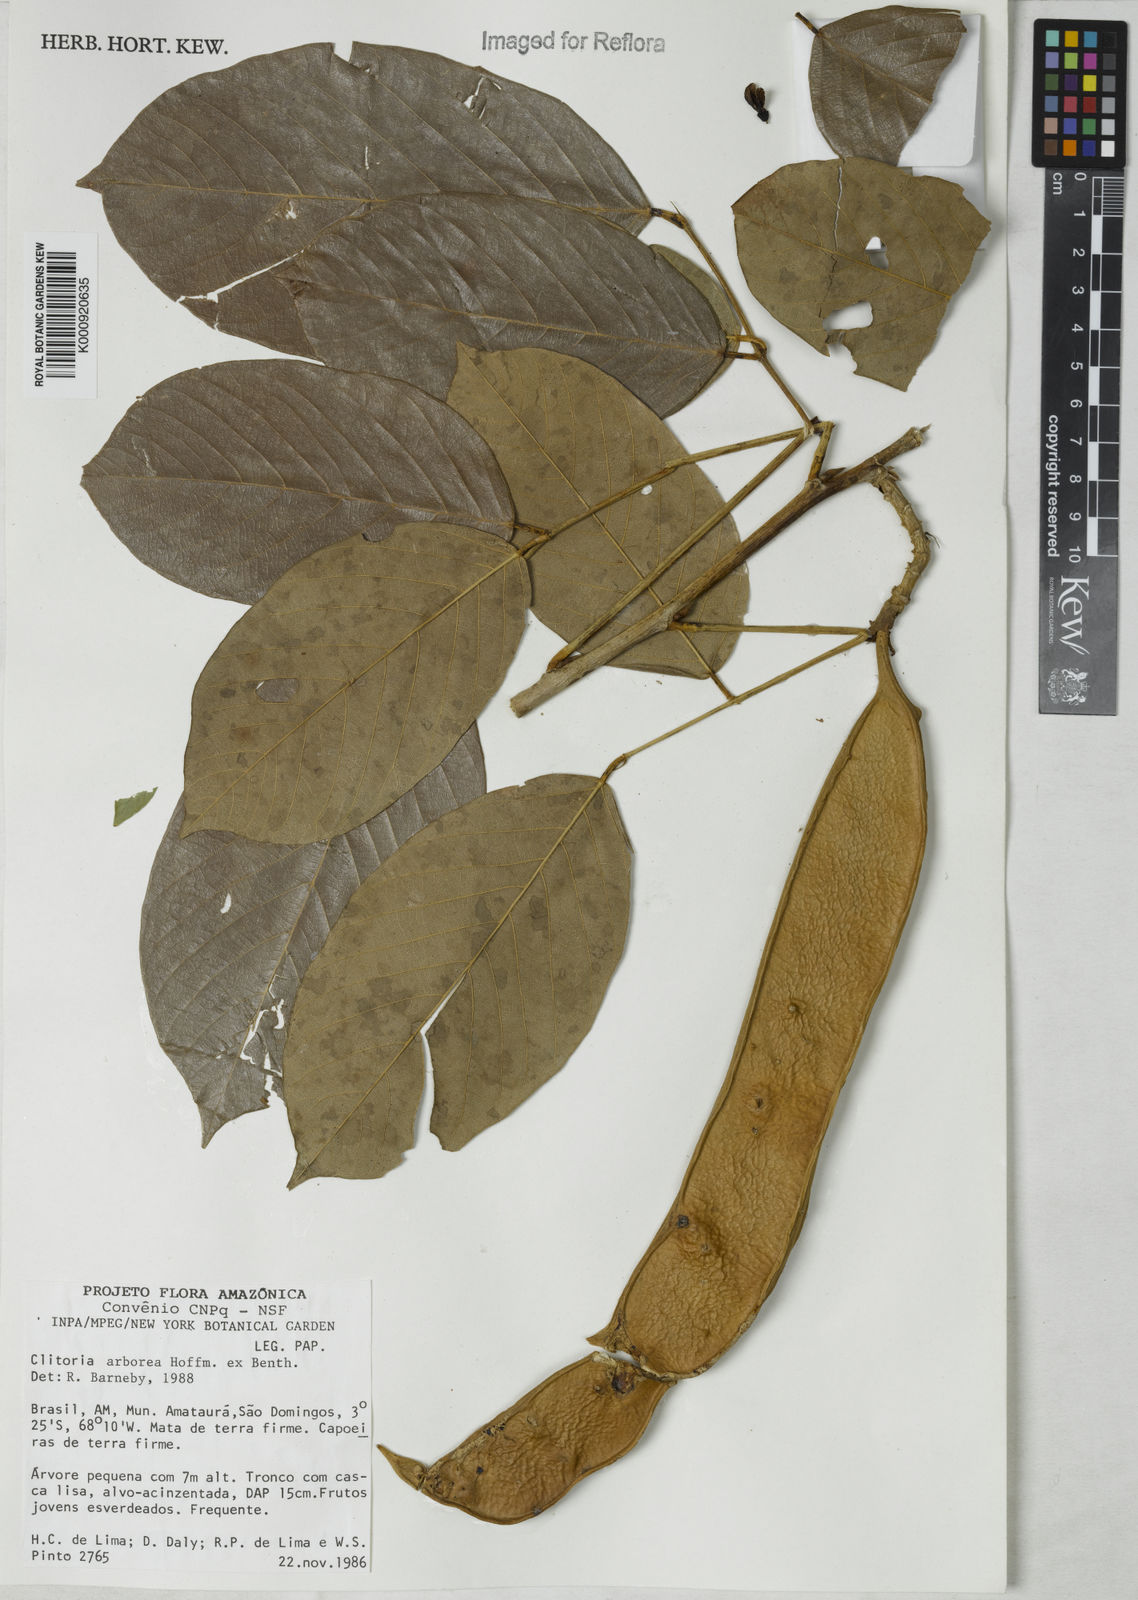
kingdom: Plantae
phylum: Tracheophyta
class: Magnoliopsida
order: Fabales
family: Fabaceae
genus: Clitoria
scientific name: Clitoria arborea
